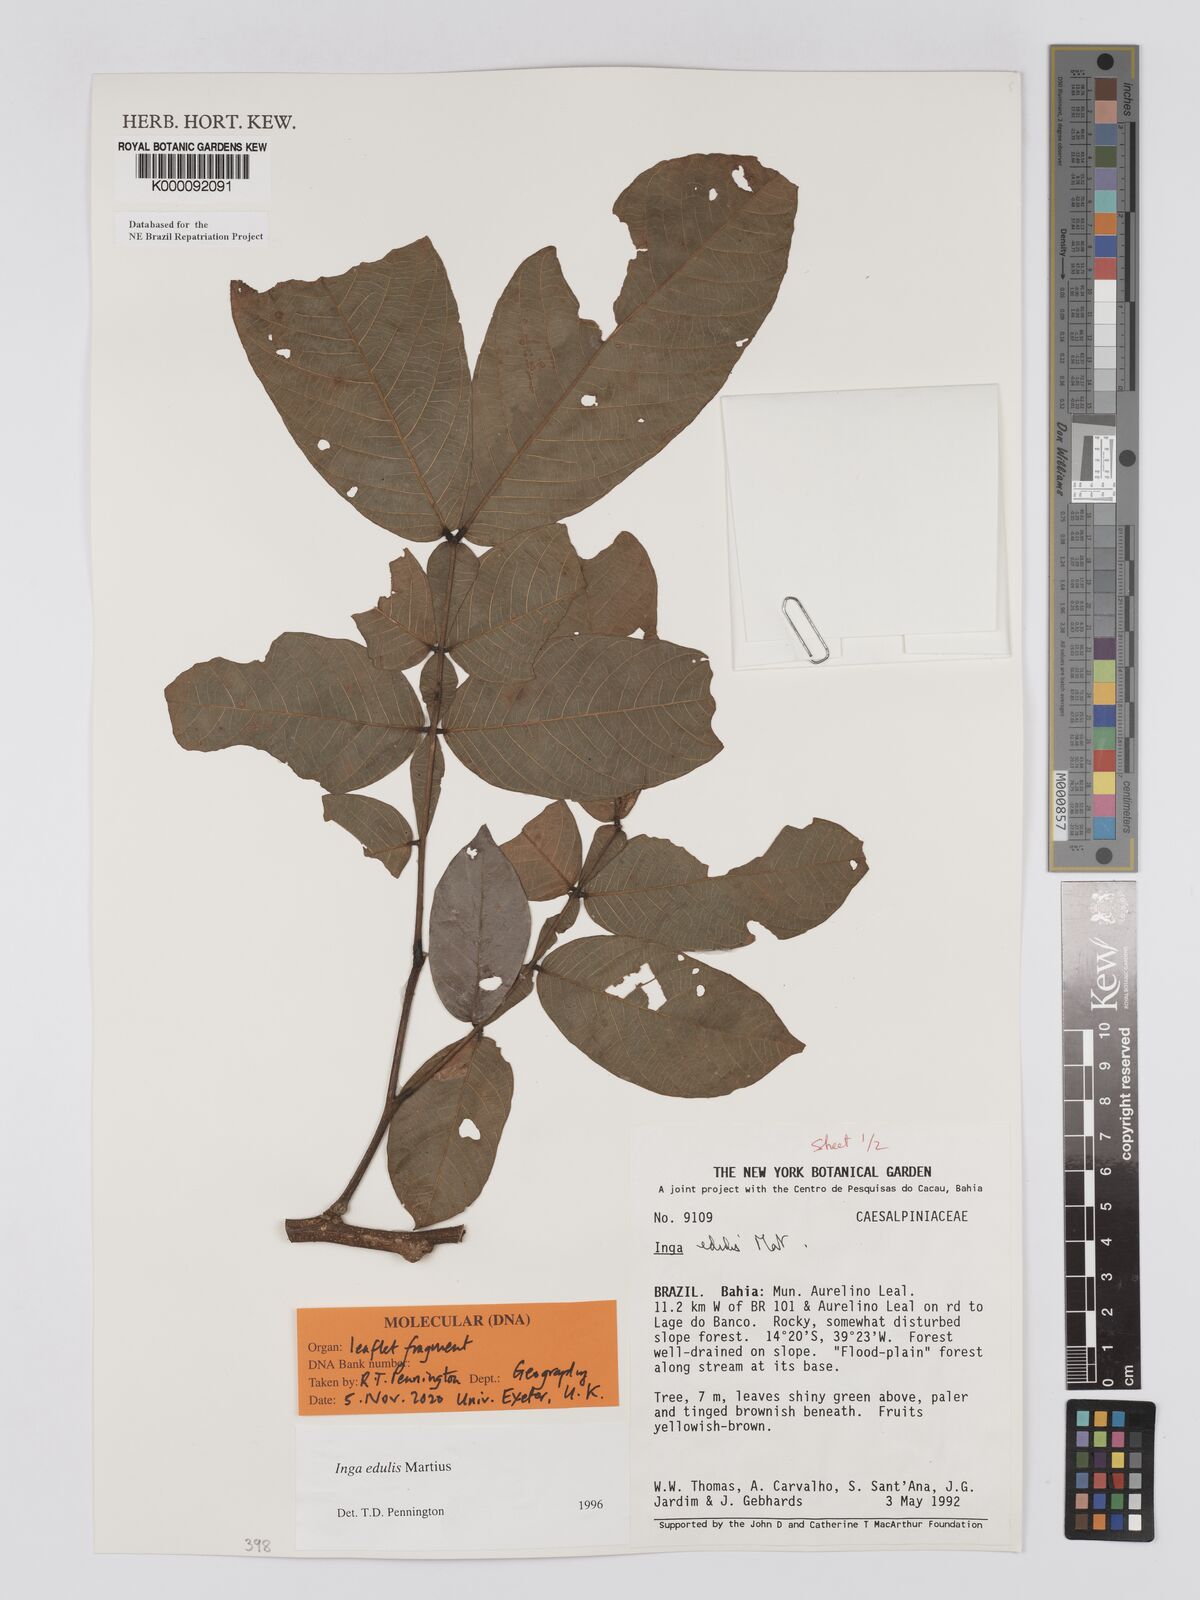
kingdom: Plantae
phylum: Tracheophyta
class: Magnoliopsida
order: Fabales
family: Fabaceae
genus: Inga
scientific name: Inga edulis
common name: Ice cream bean
